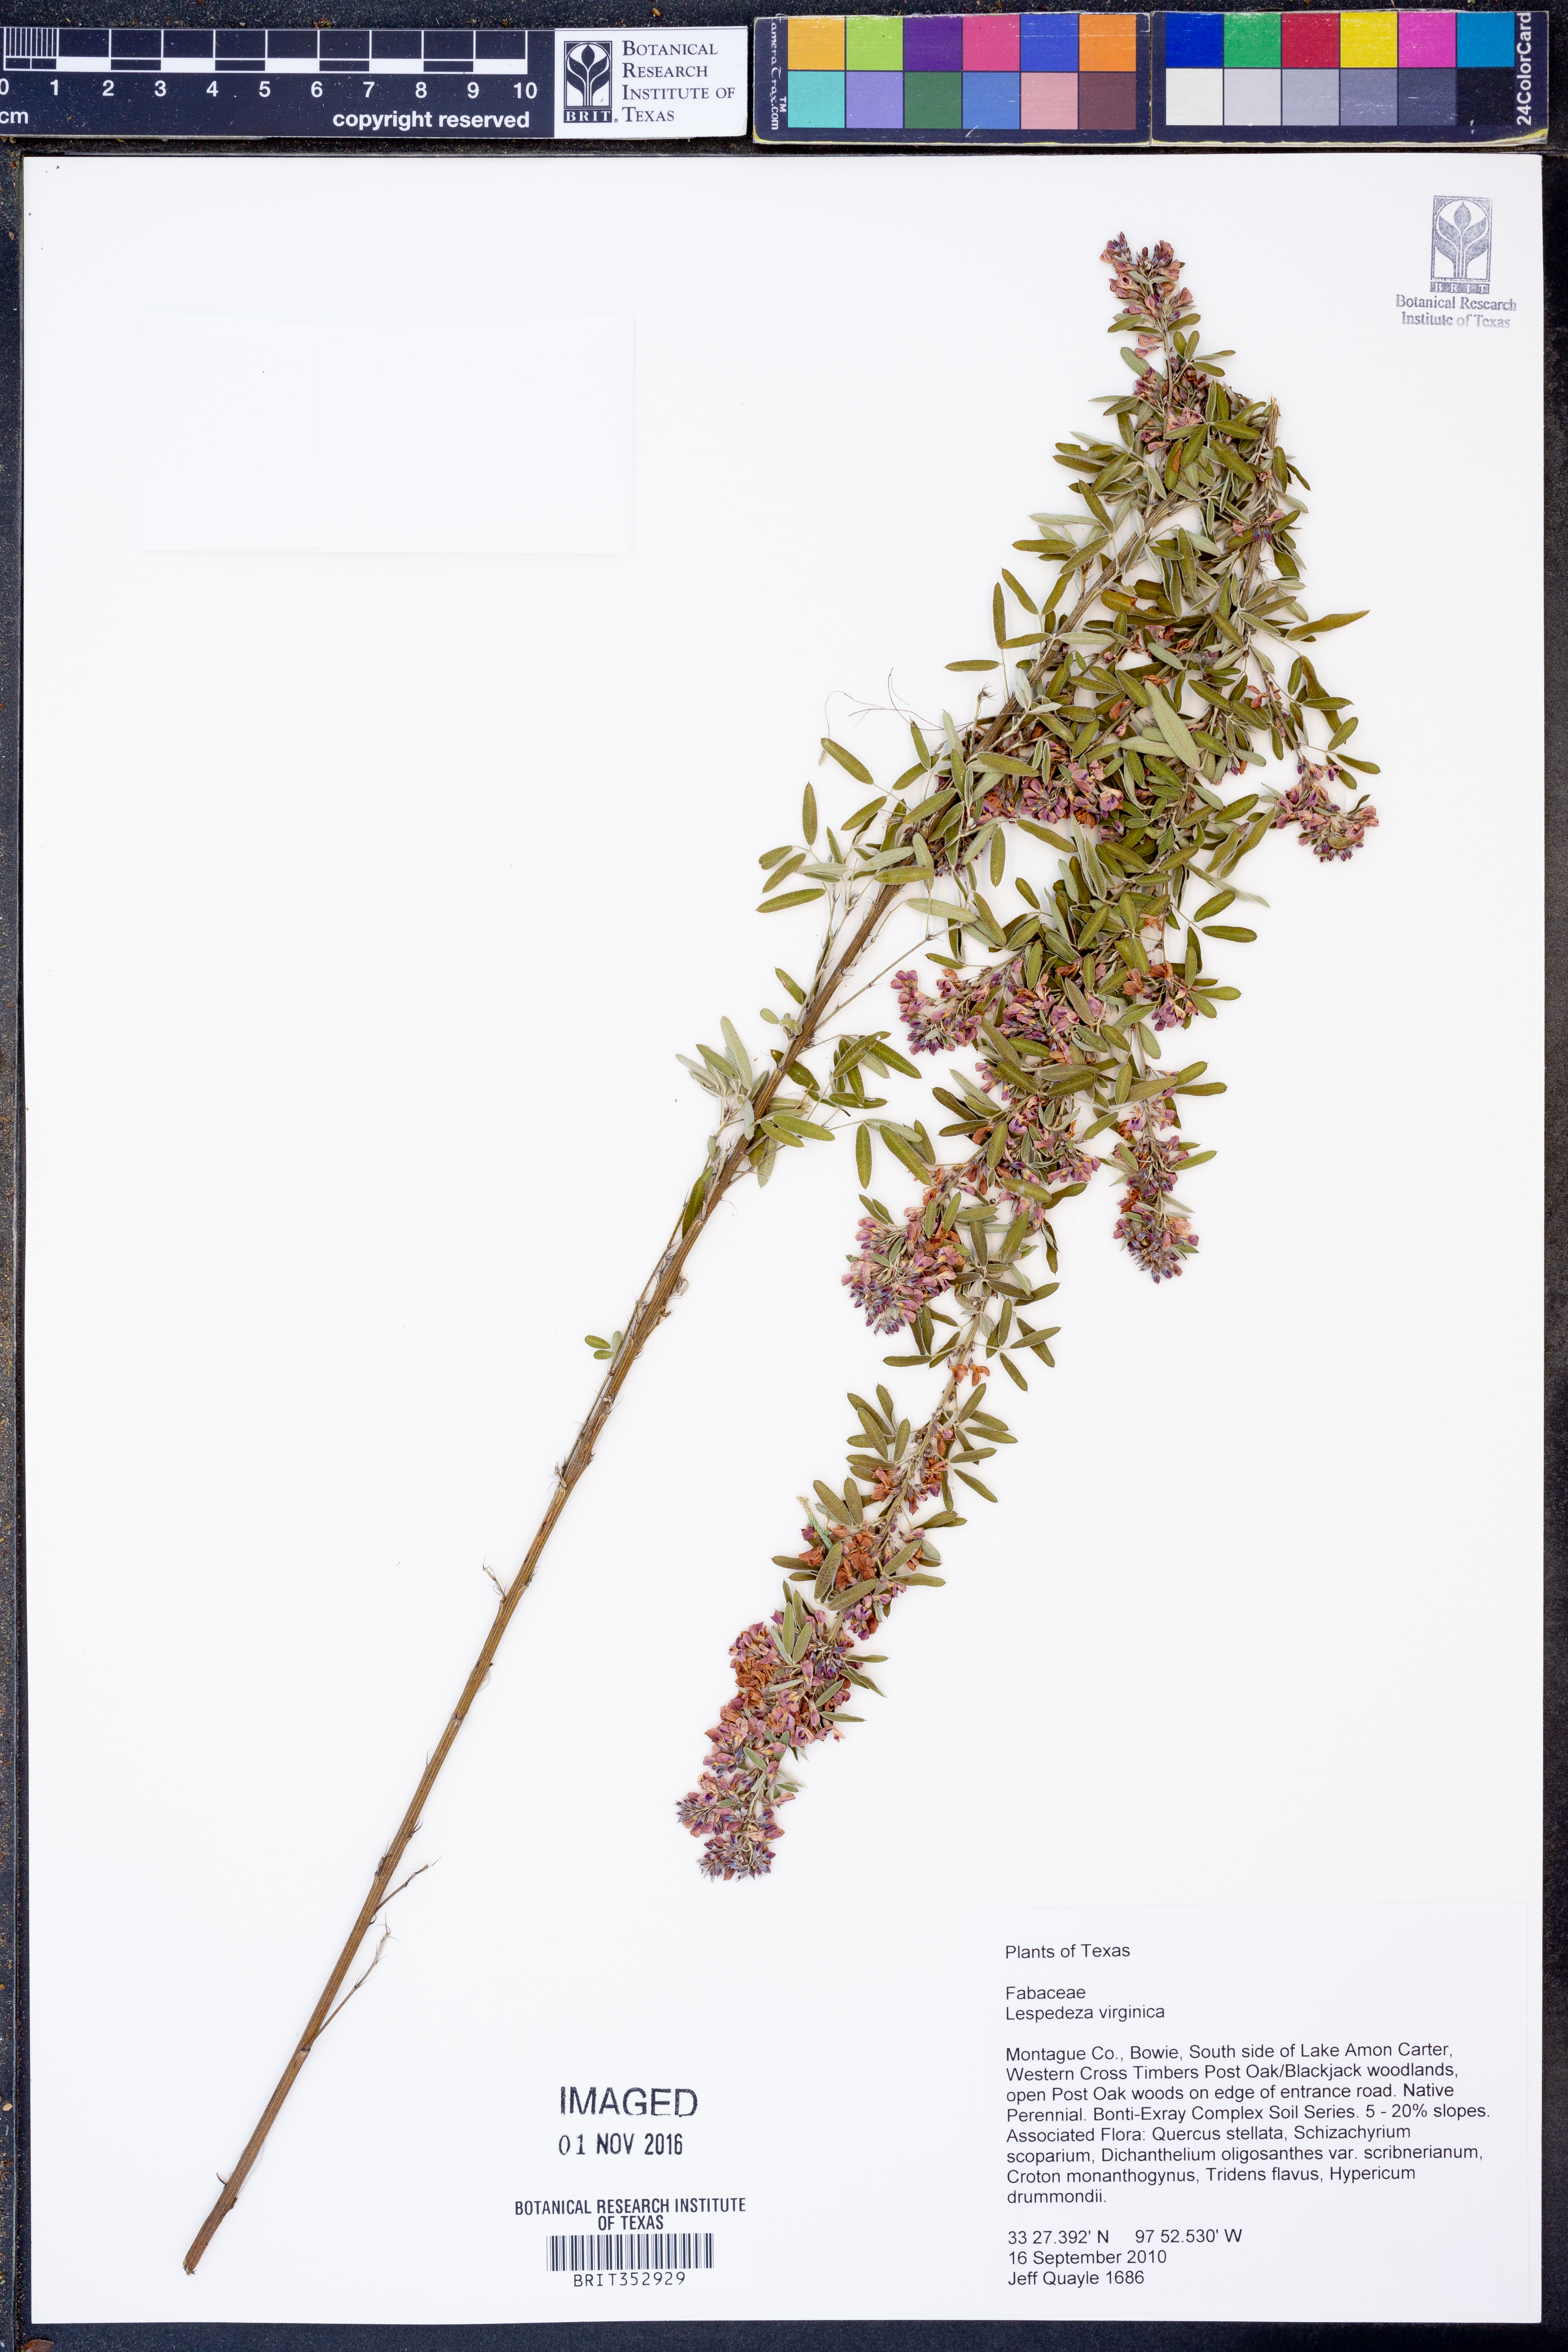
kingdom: Plantae
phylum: Tracheophyta
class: Magnoliopsida
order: Fabales
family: Fabaceae
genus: Lespedeza
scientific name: Lespedeza virginica
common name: Slender bush-clover
